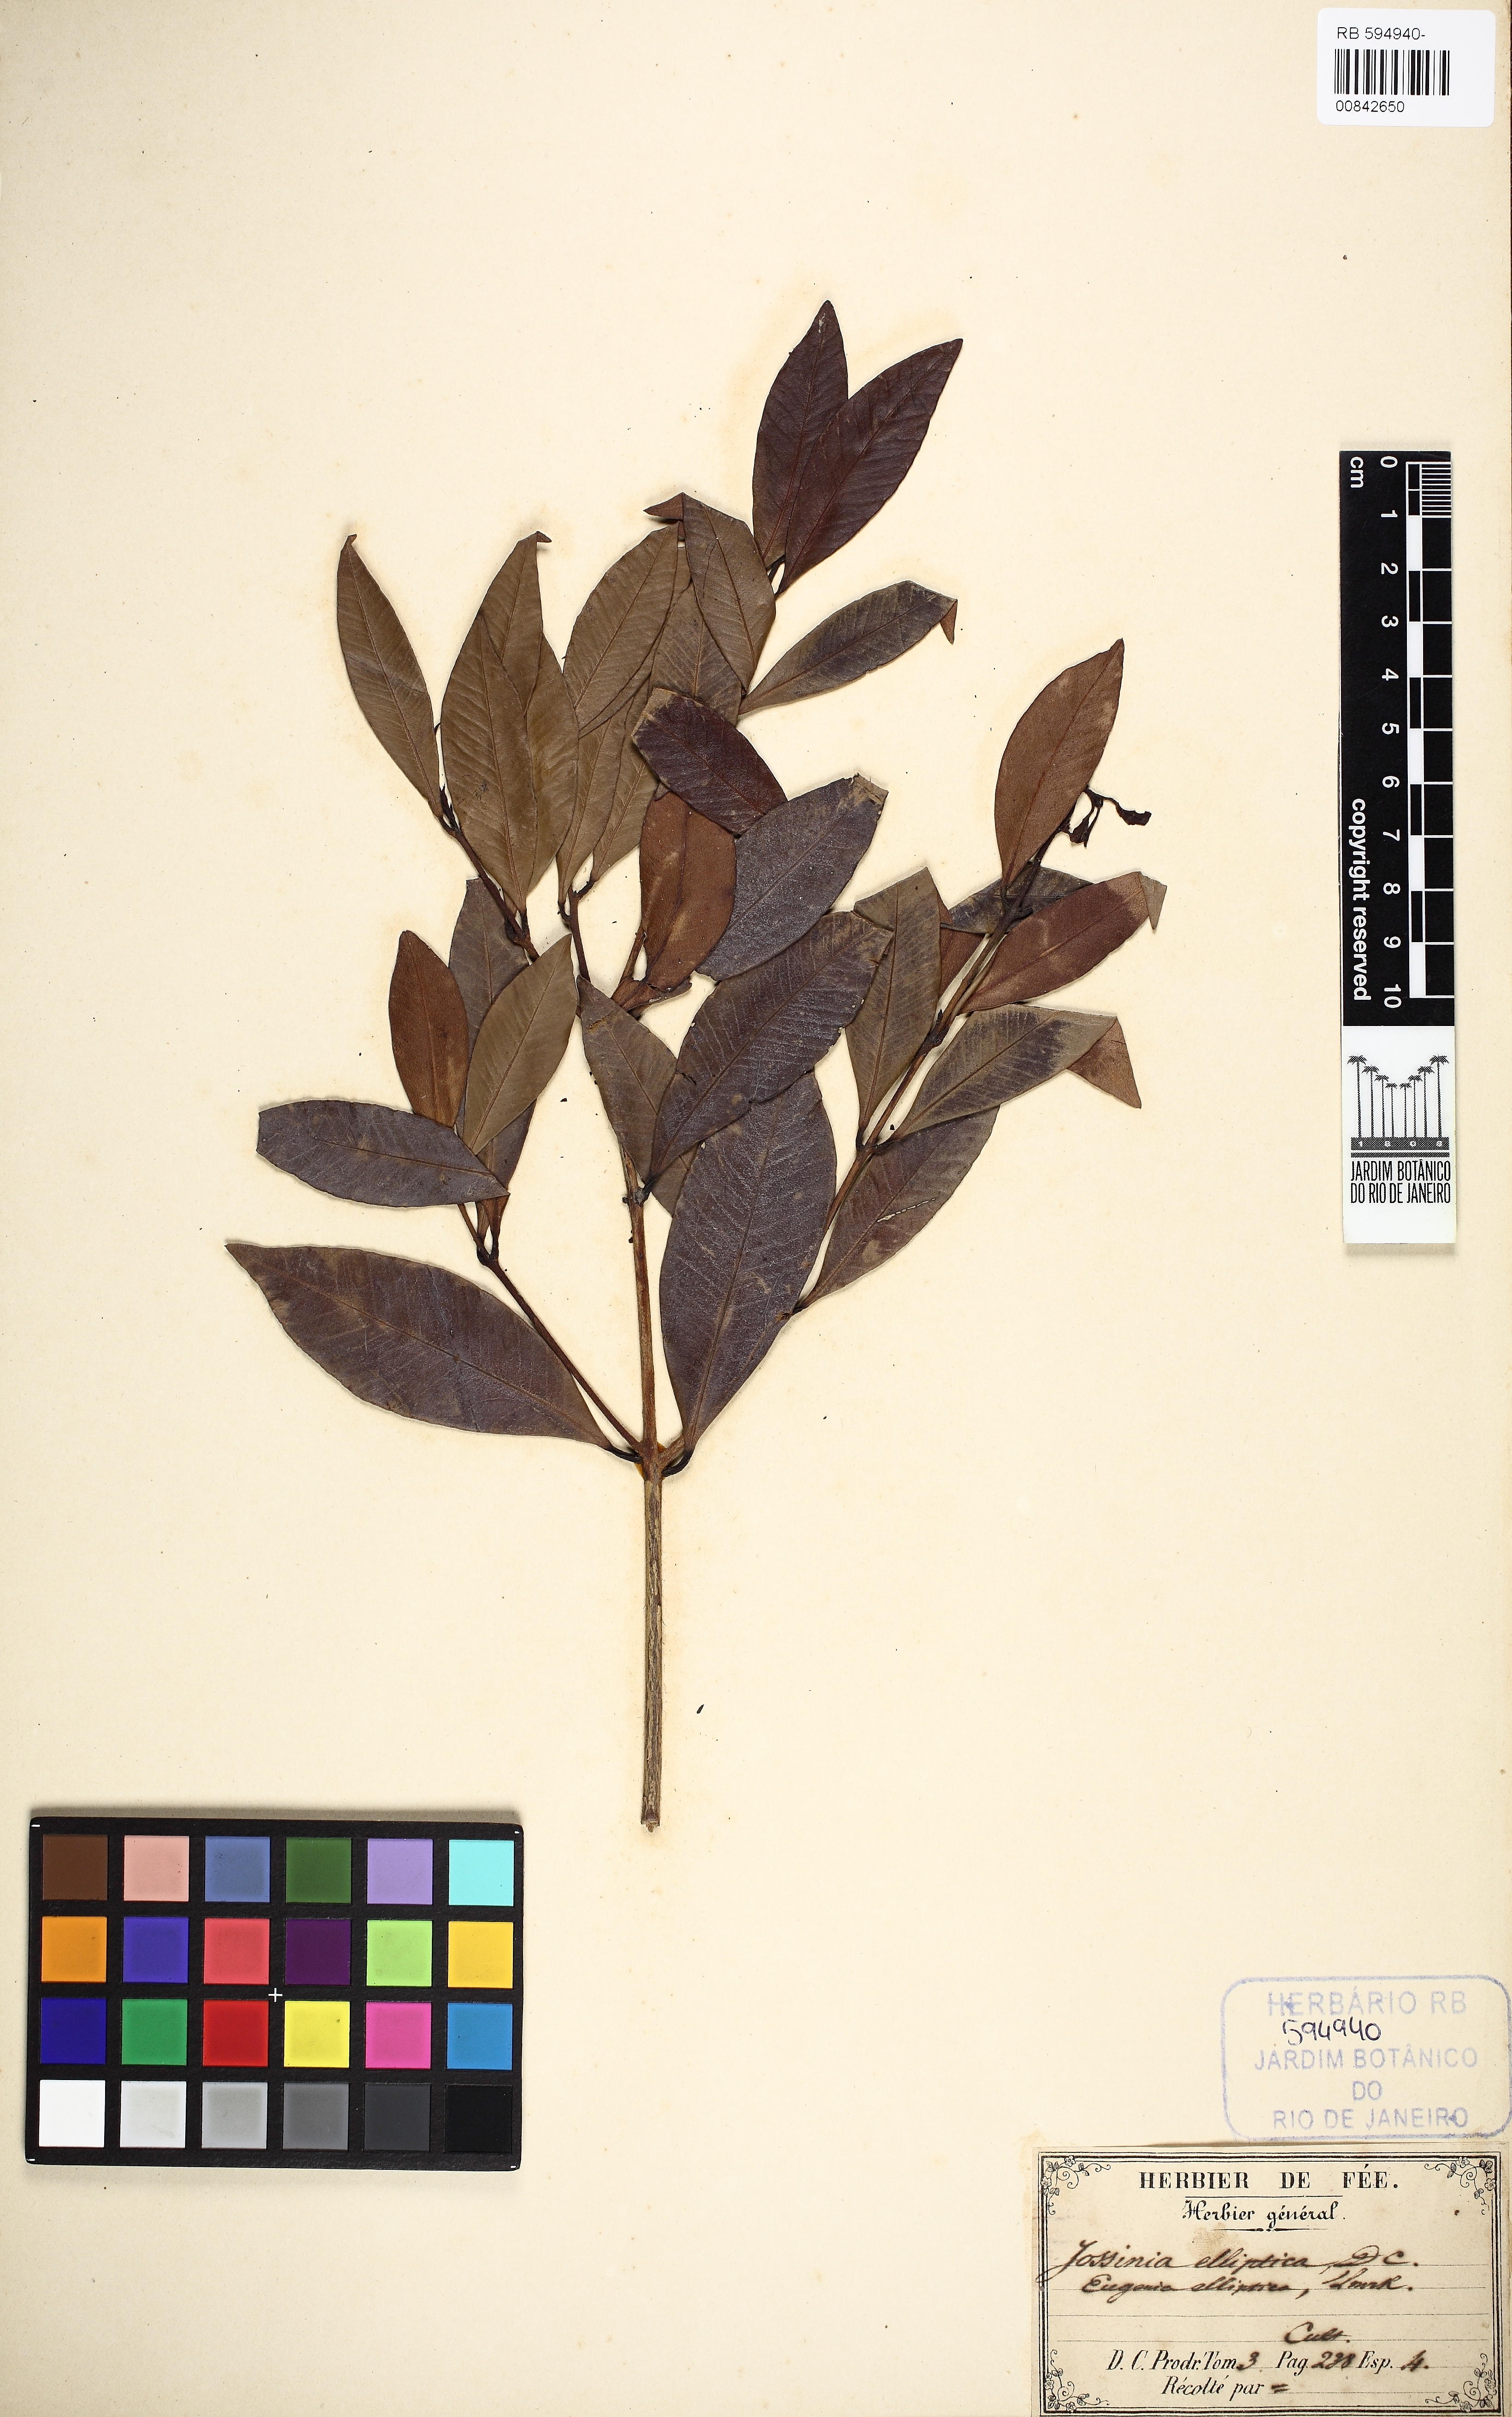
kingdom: Plantae
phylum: Tracheophyta
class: Magnoliopsida
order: Myrtales
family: Myrtaceae
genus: Eugenia
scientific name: Eugenia elliptica
